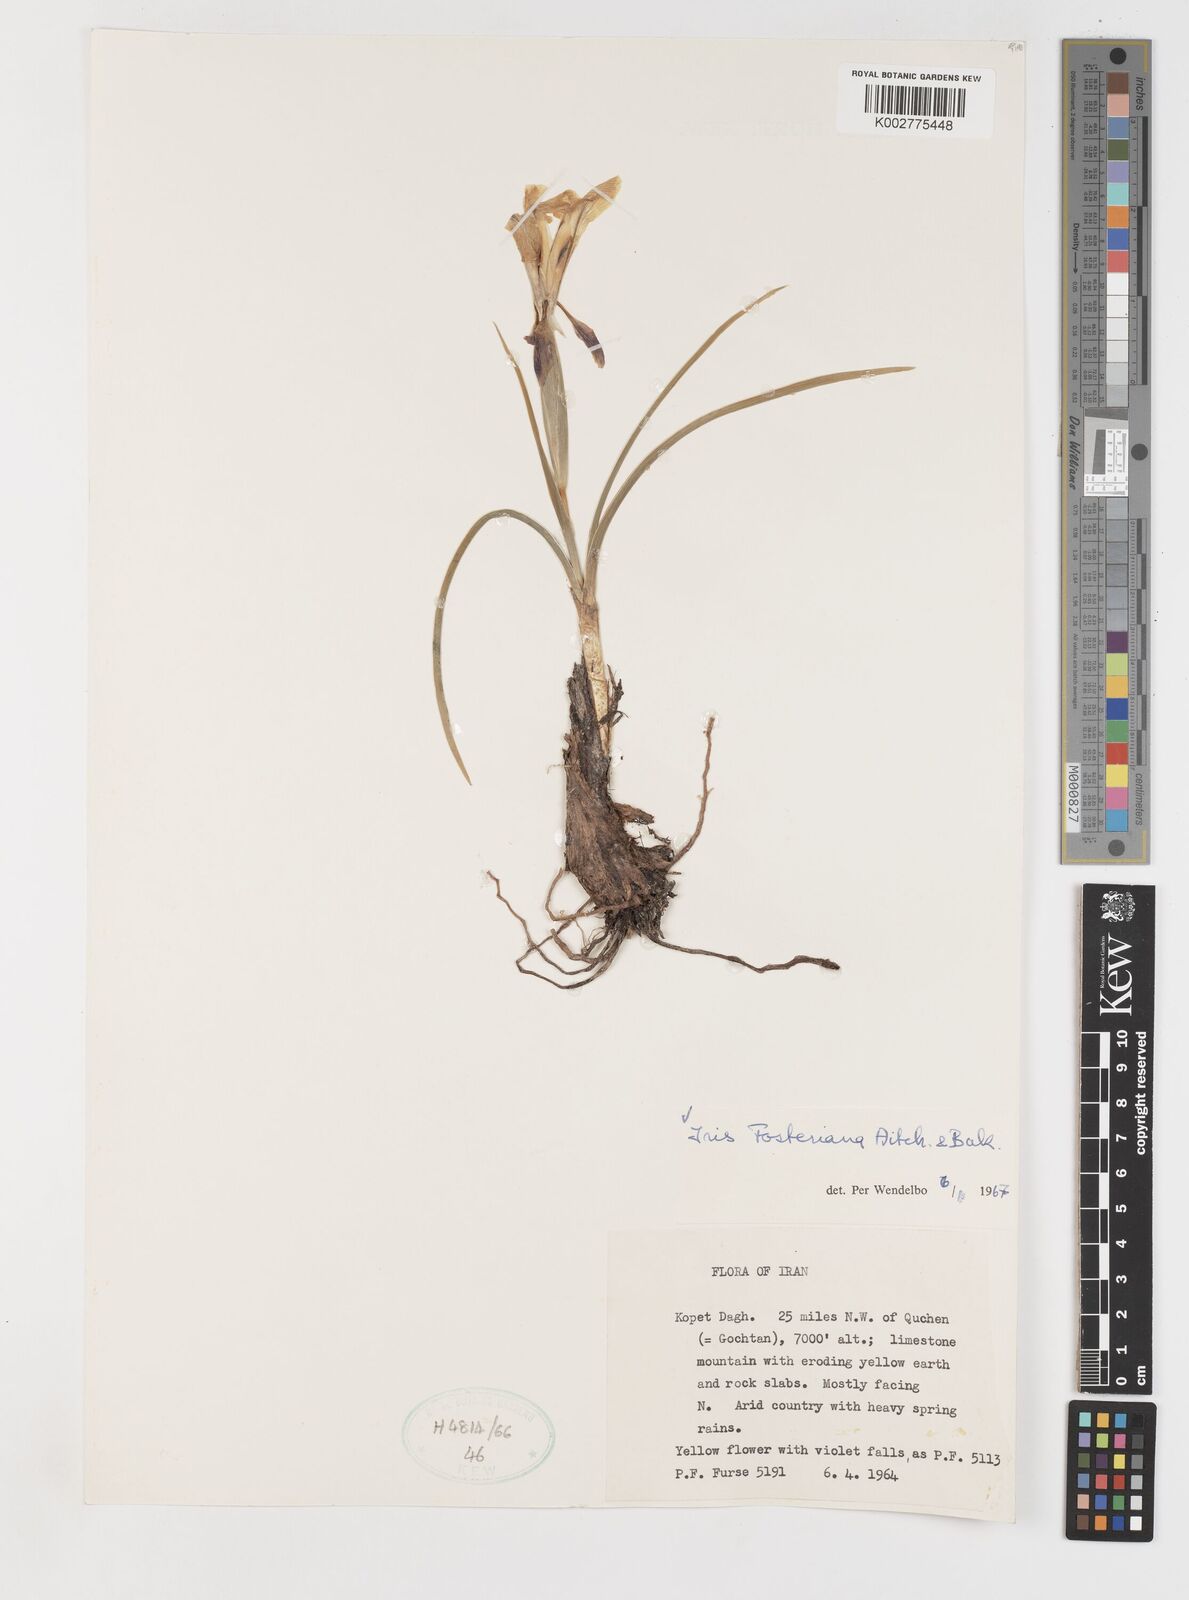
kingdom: Plantae
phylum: Tracheophyta
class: Liliopsida
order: Asparagales
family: Iridaceae
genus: Iris
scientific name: Iris fosteriana
